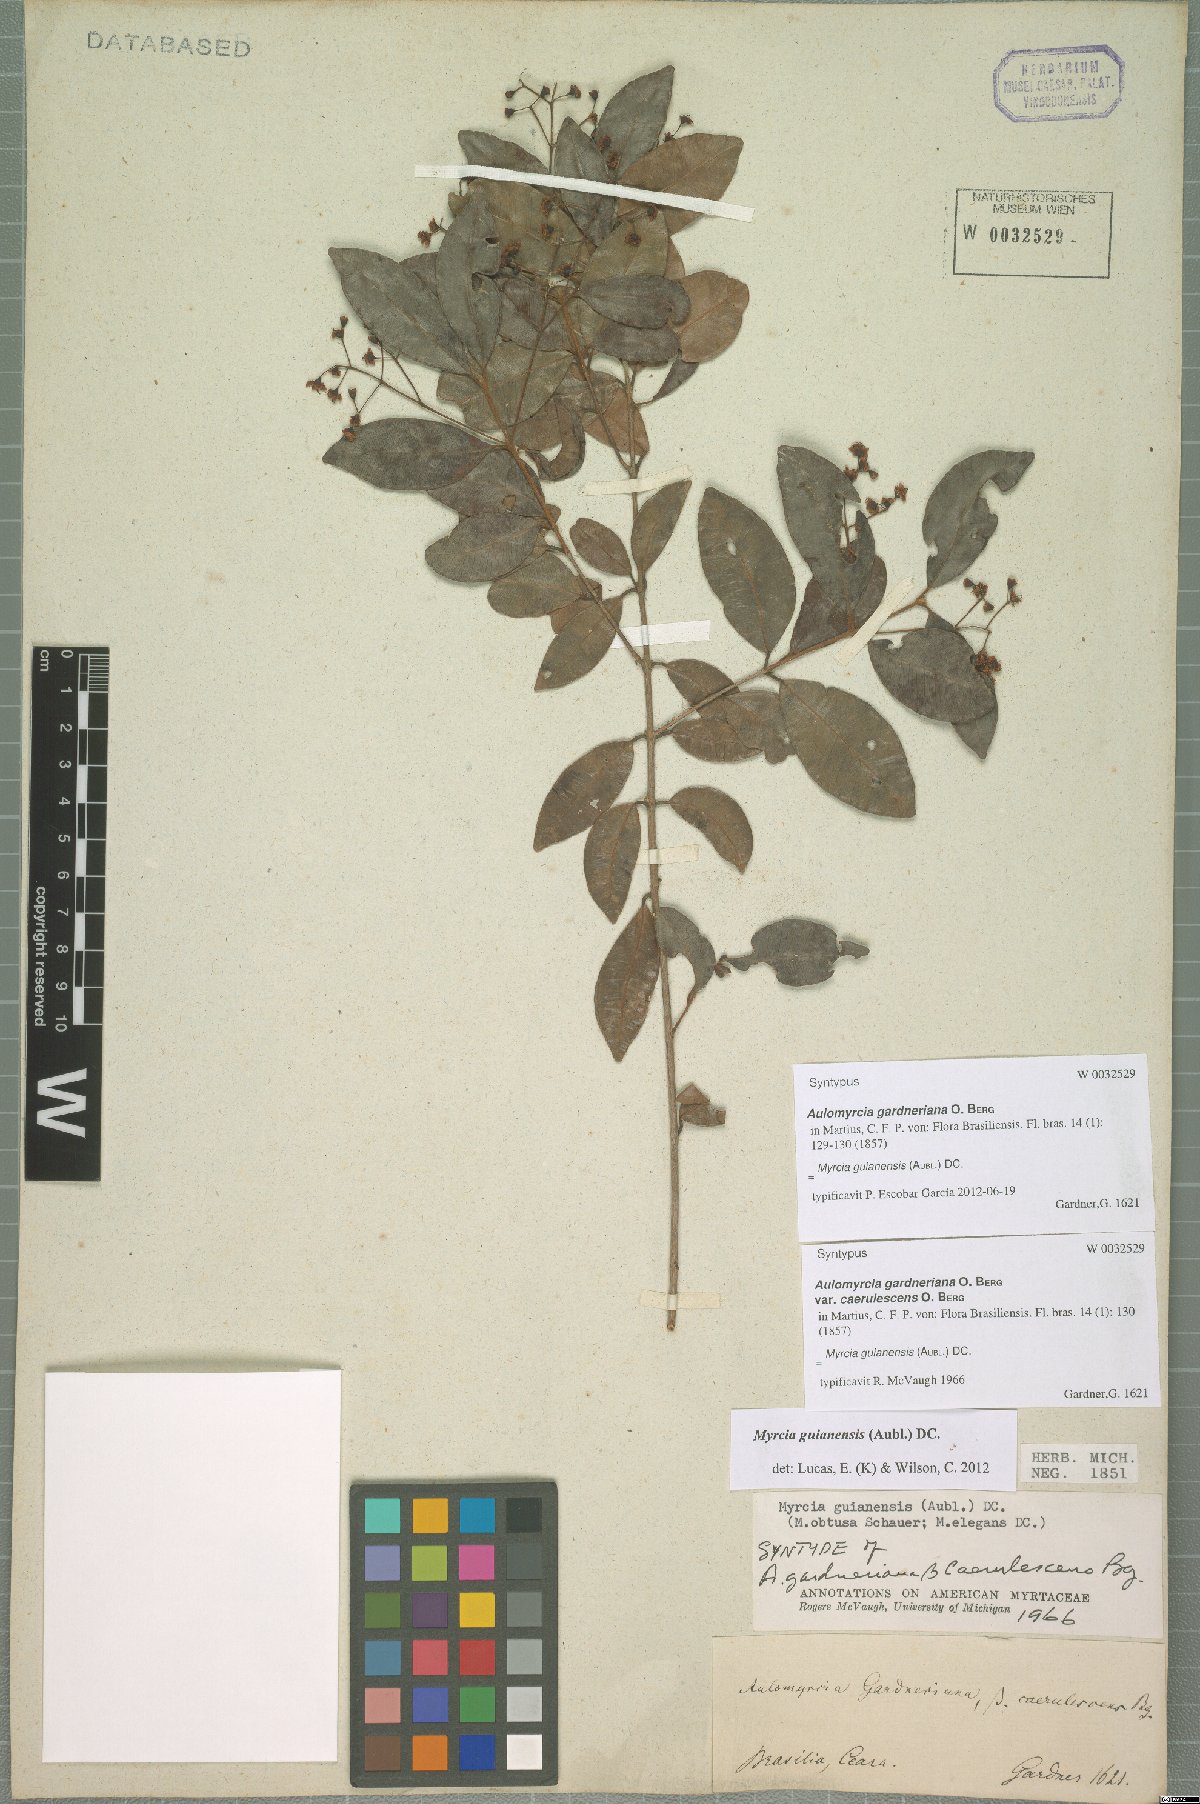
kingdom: Plantae
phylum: Tracheophyta
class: Magnoliopsida
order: Myrtales
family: Myrtaceae
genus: Myrcia
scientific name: Myrcia guianensis
